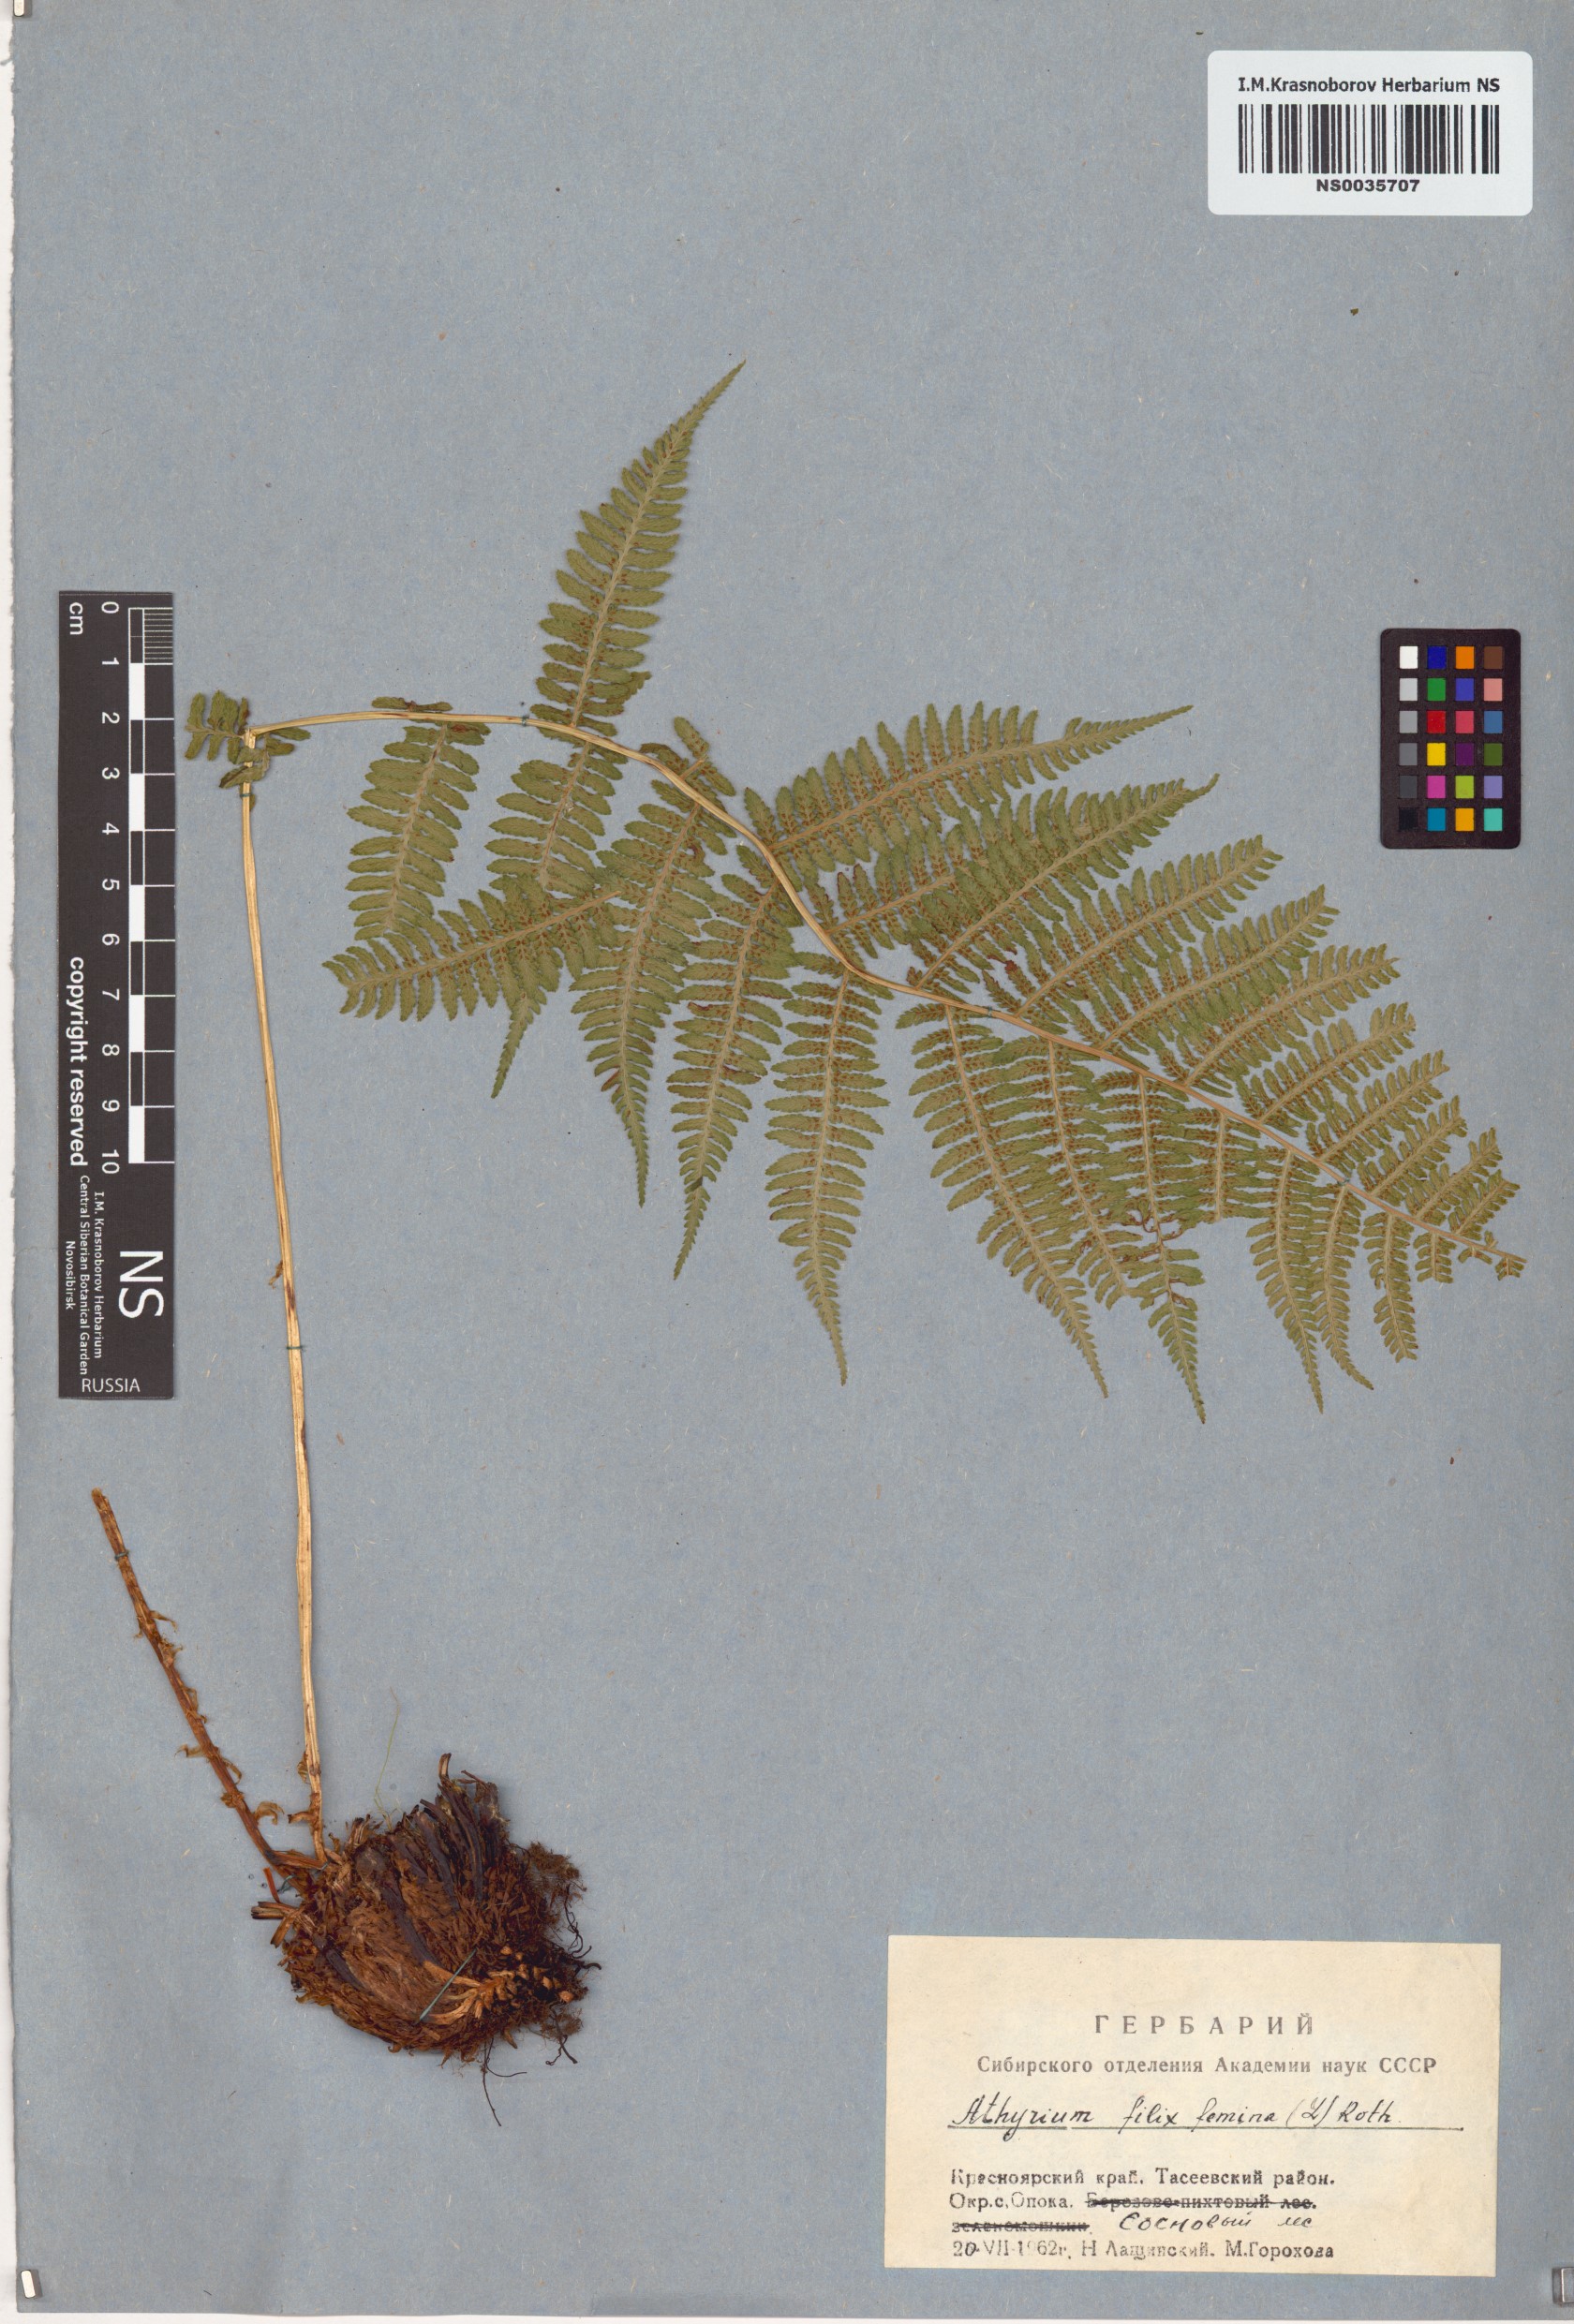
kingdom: Plantae
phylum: Tracheophyta
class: Polypodiopsida
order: Polypodiales
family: Athyriaceae
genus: Athyrium
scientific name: Athyrium filix-femina
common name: Lady fern
